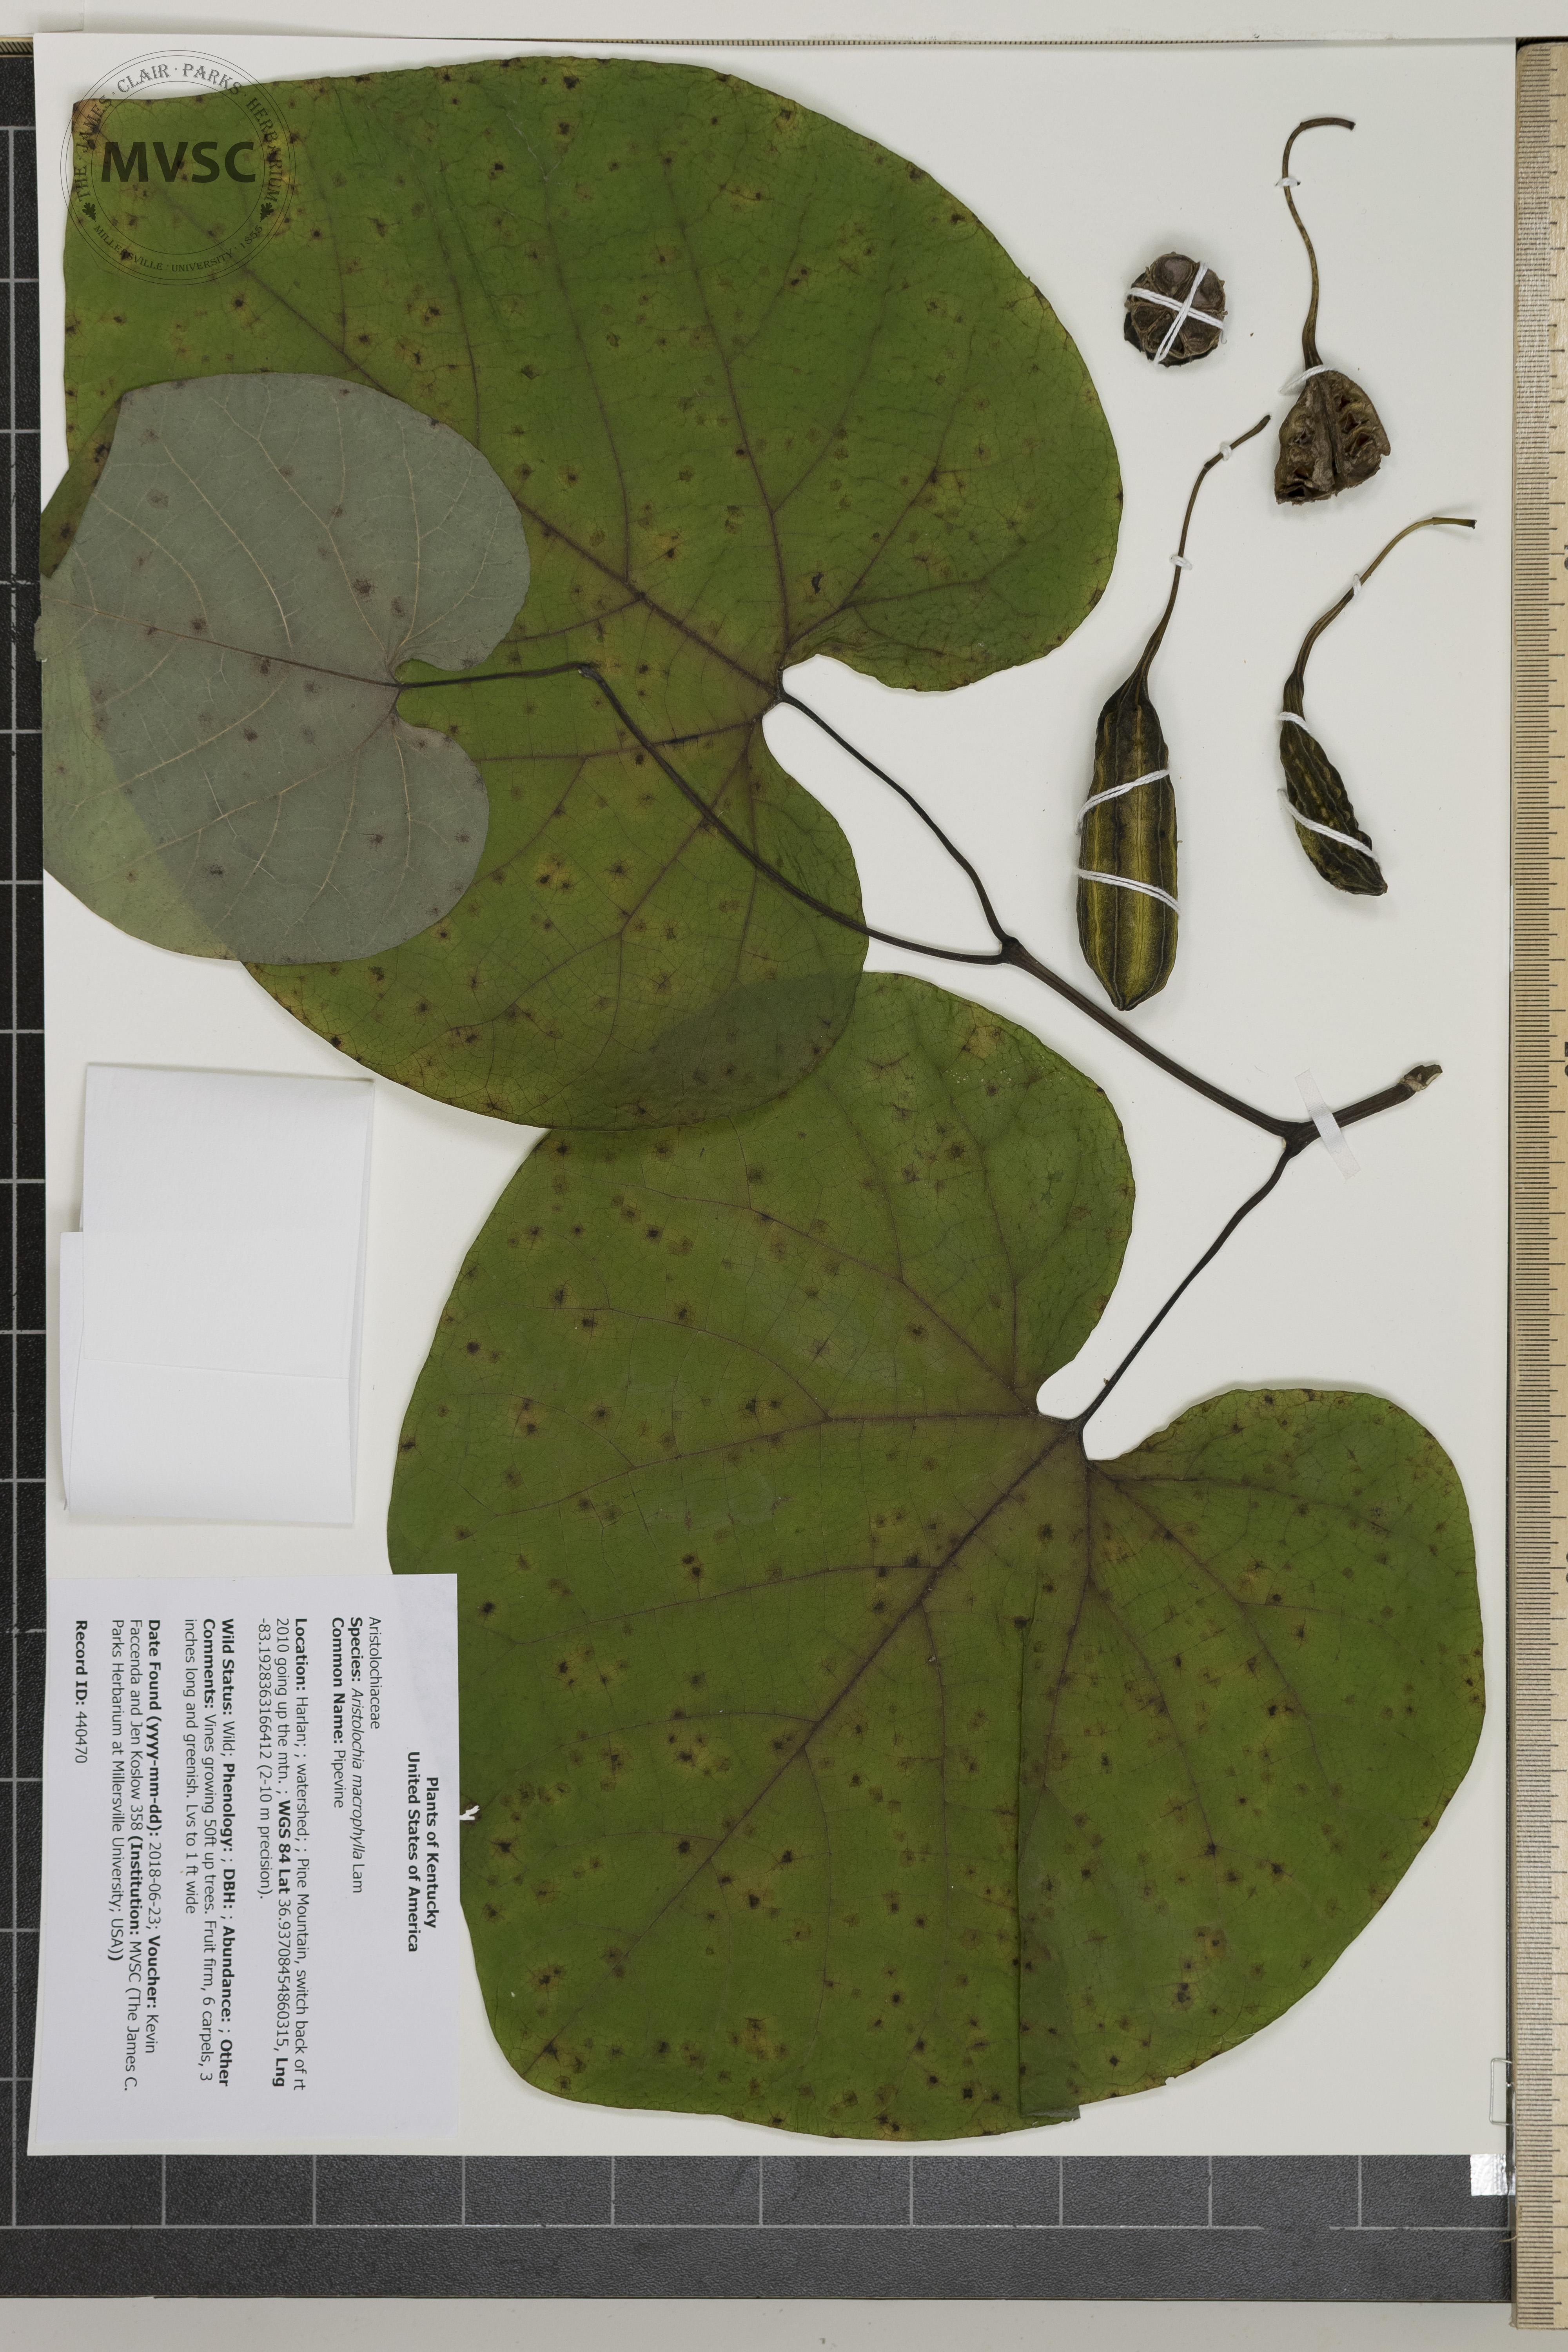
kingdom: Plantae
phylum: Tracheophyta
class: Magnoliopsida
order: Piperales
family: Aristolochiaceae
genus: Isotrema
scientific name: Isotrema macrophyllum
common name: Pipevine
